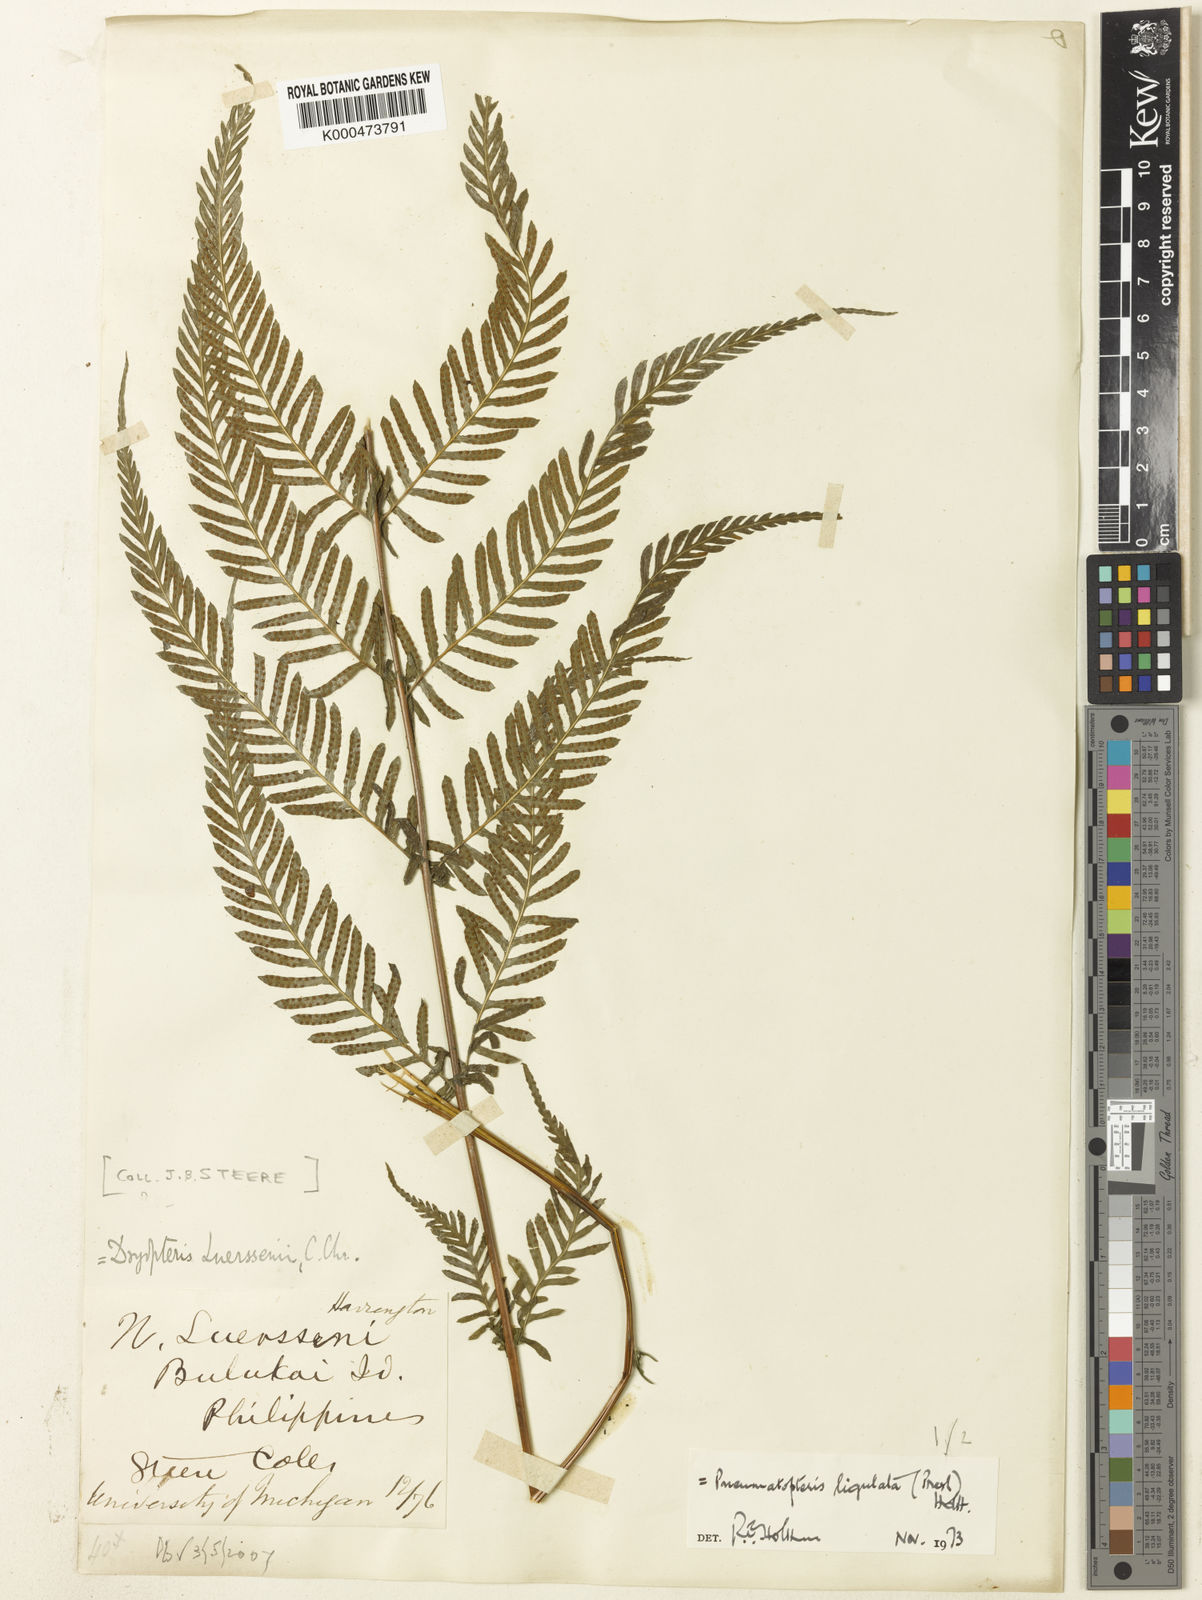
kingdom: Plantae
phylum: Tracheophyta
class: Polypodiopsida
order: Polypodiales
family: Thelypteridaceae
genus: Plesioneuron
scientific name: Plesioneuron ligulatum
